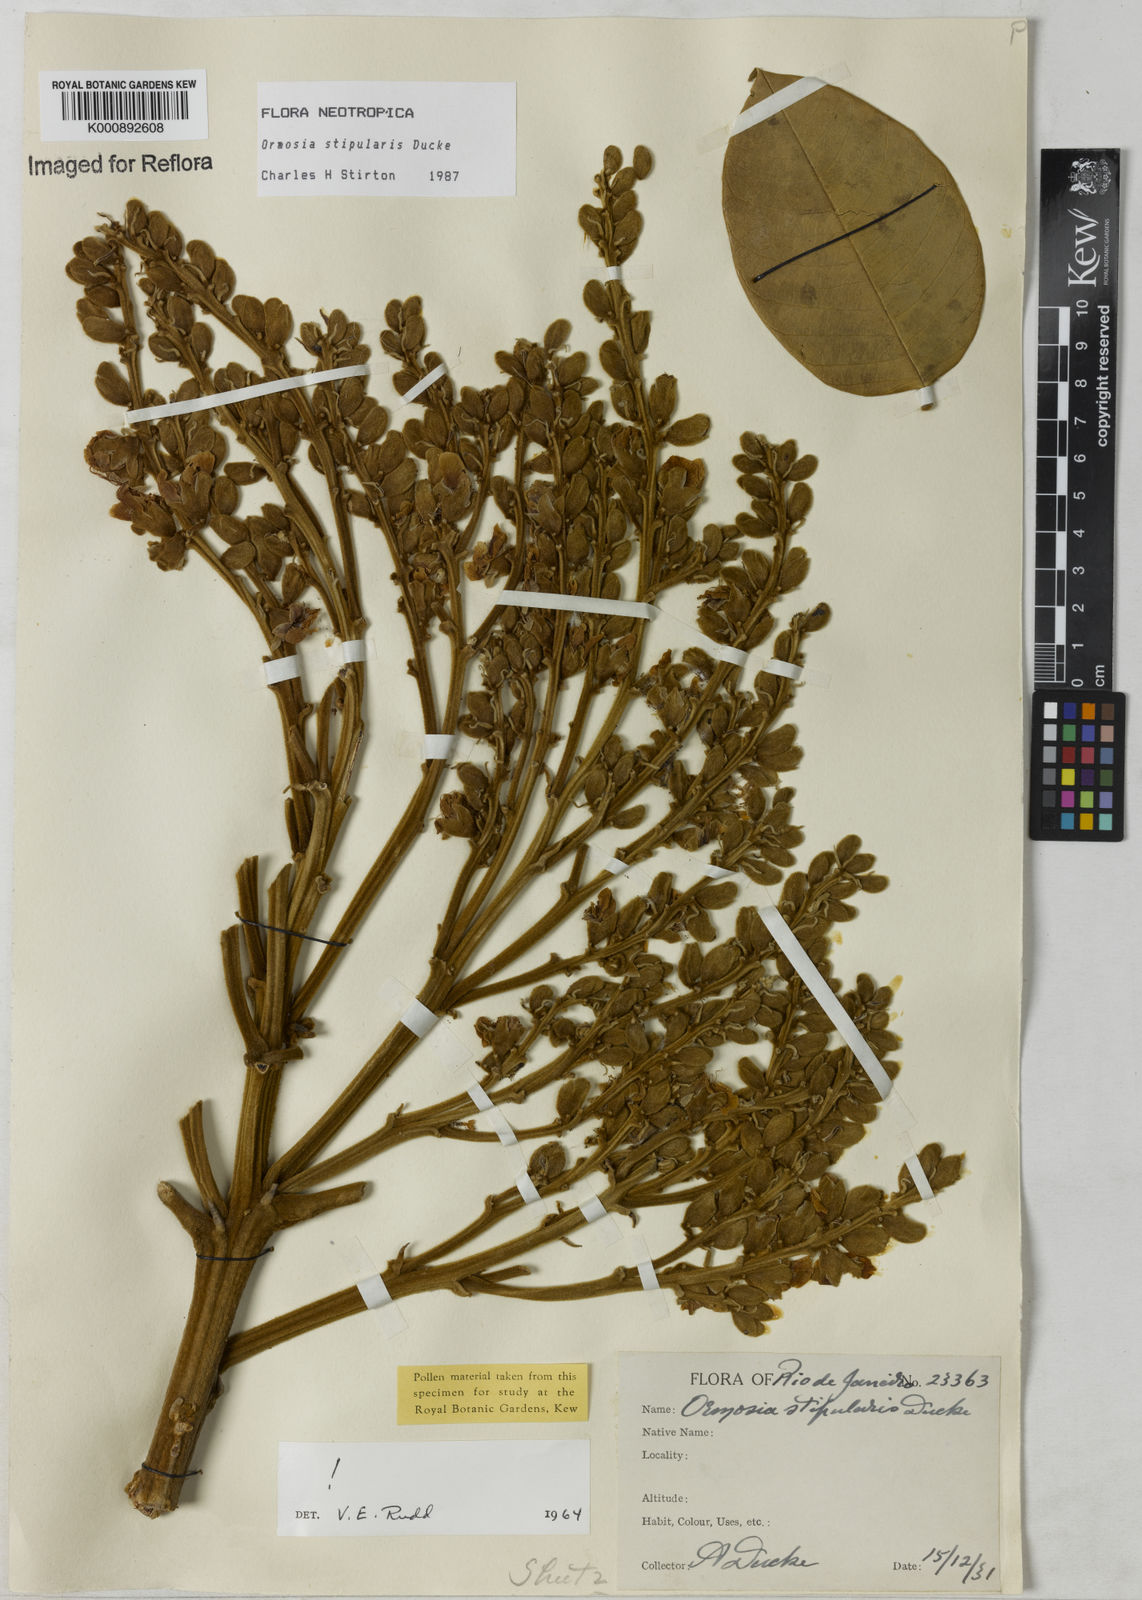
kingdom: Plantae
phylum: Tracheophyta
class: Magnoliopsida
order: Fabales
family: Fabaceae
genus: Ormosia
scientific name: Ormosia stipularis
